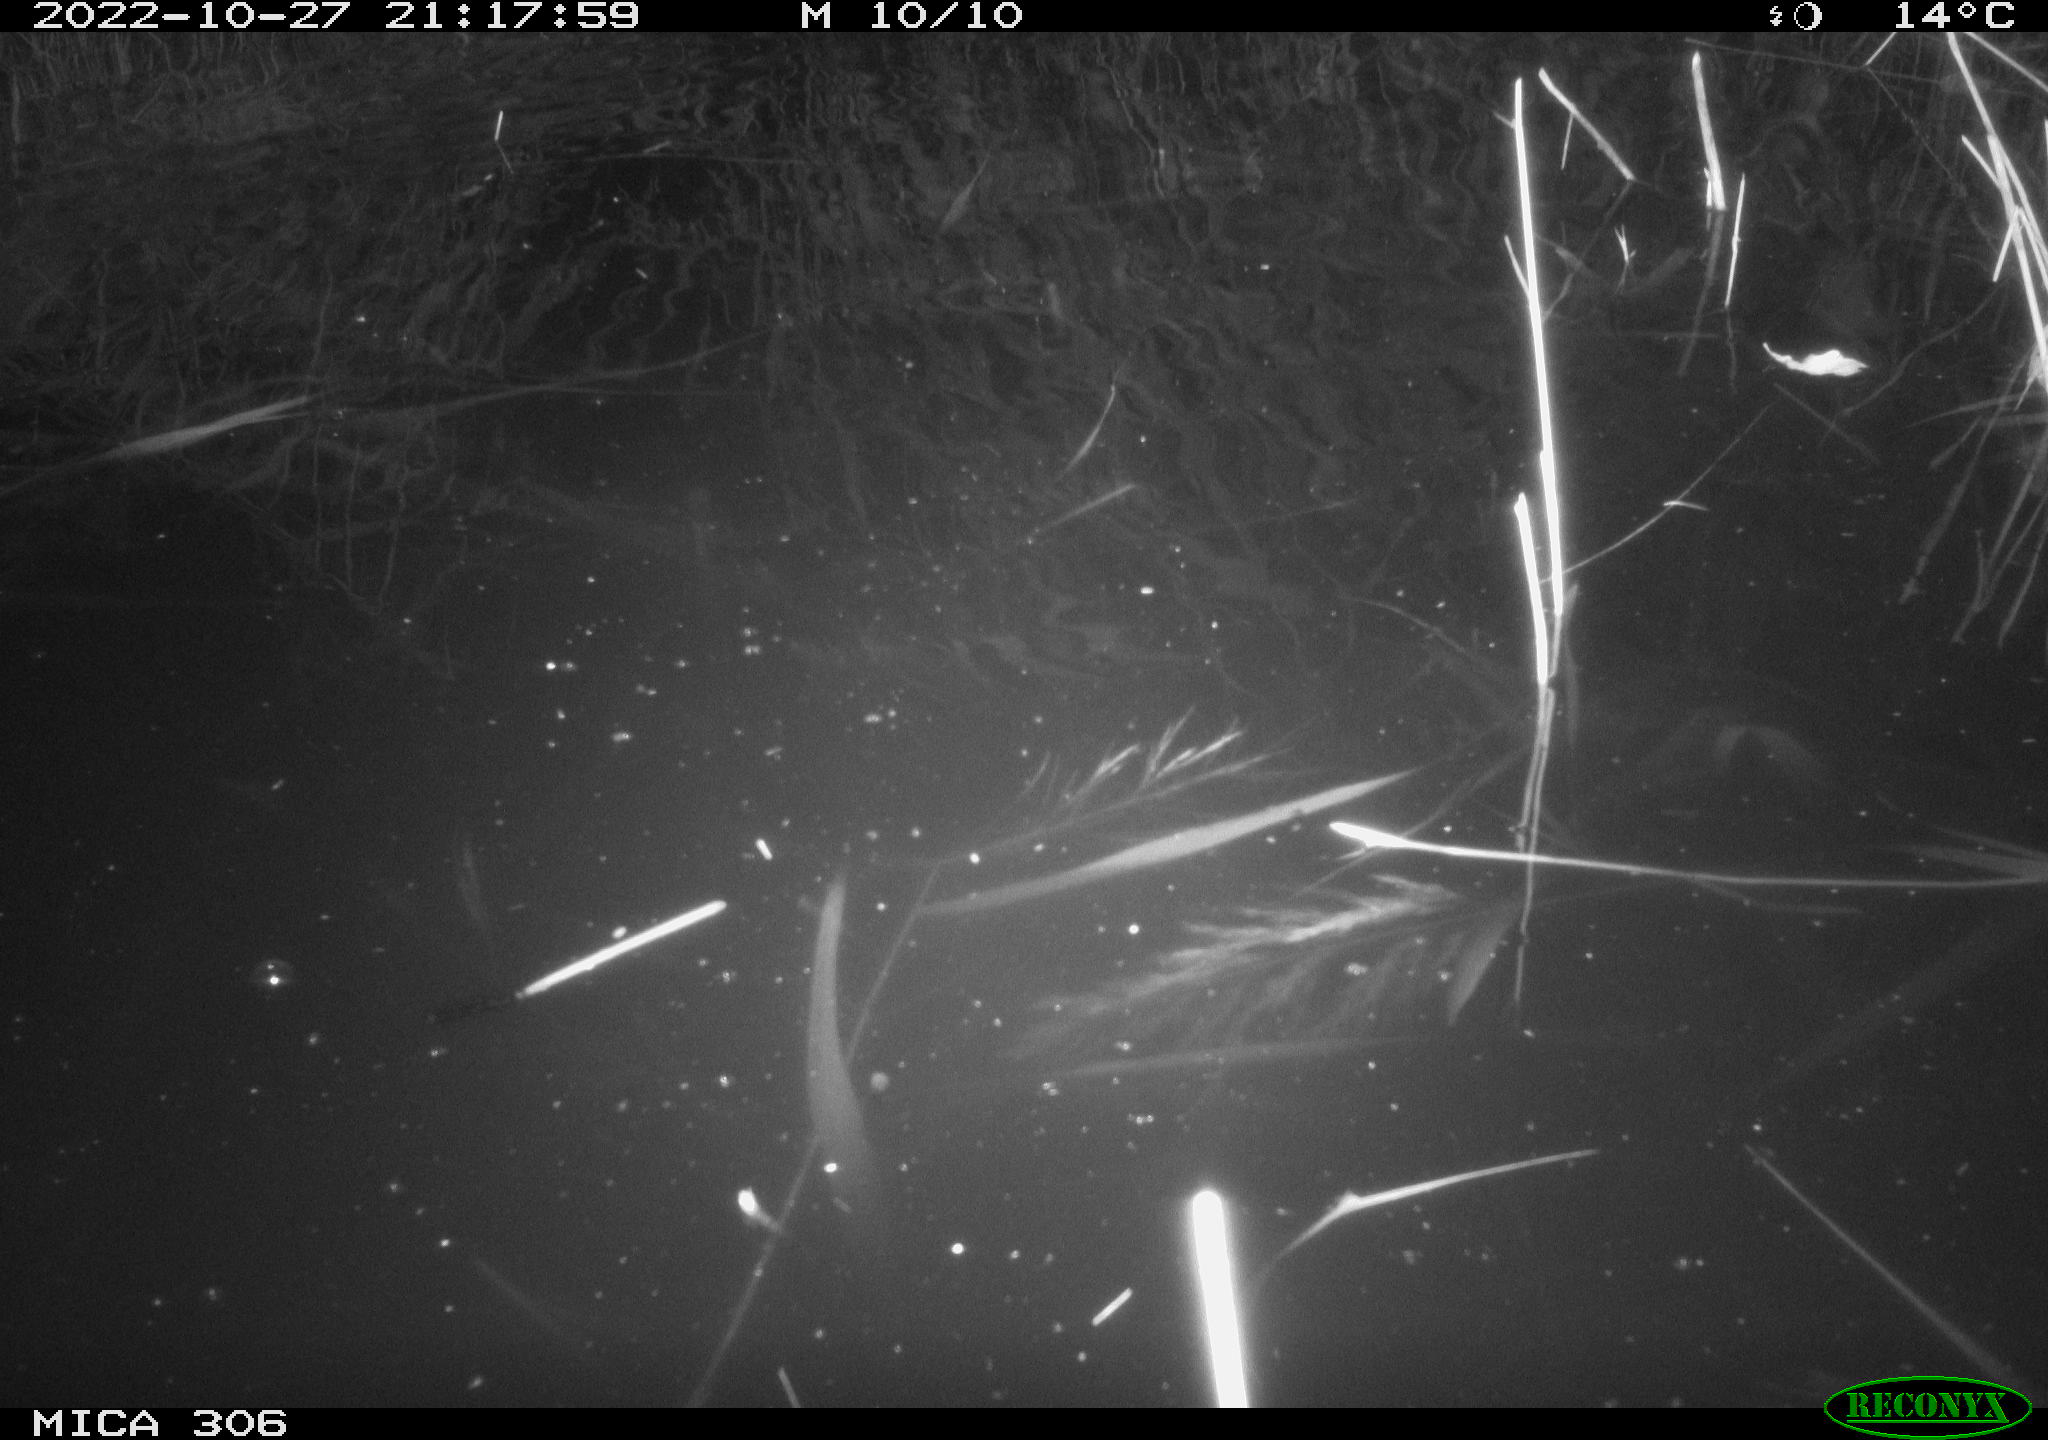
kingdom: Animalia
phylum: Chordata
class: Mammalia
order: Rodentia
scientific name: Rodentia
